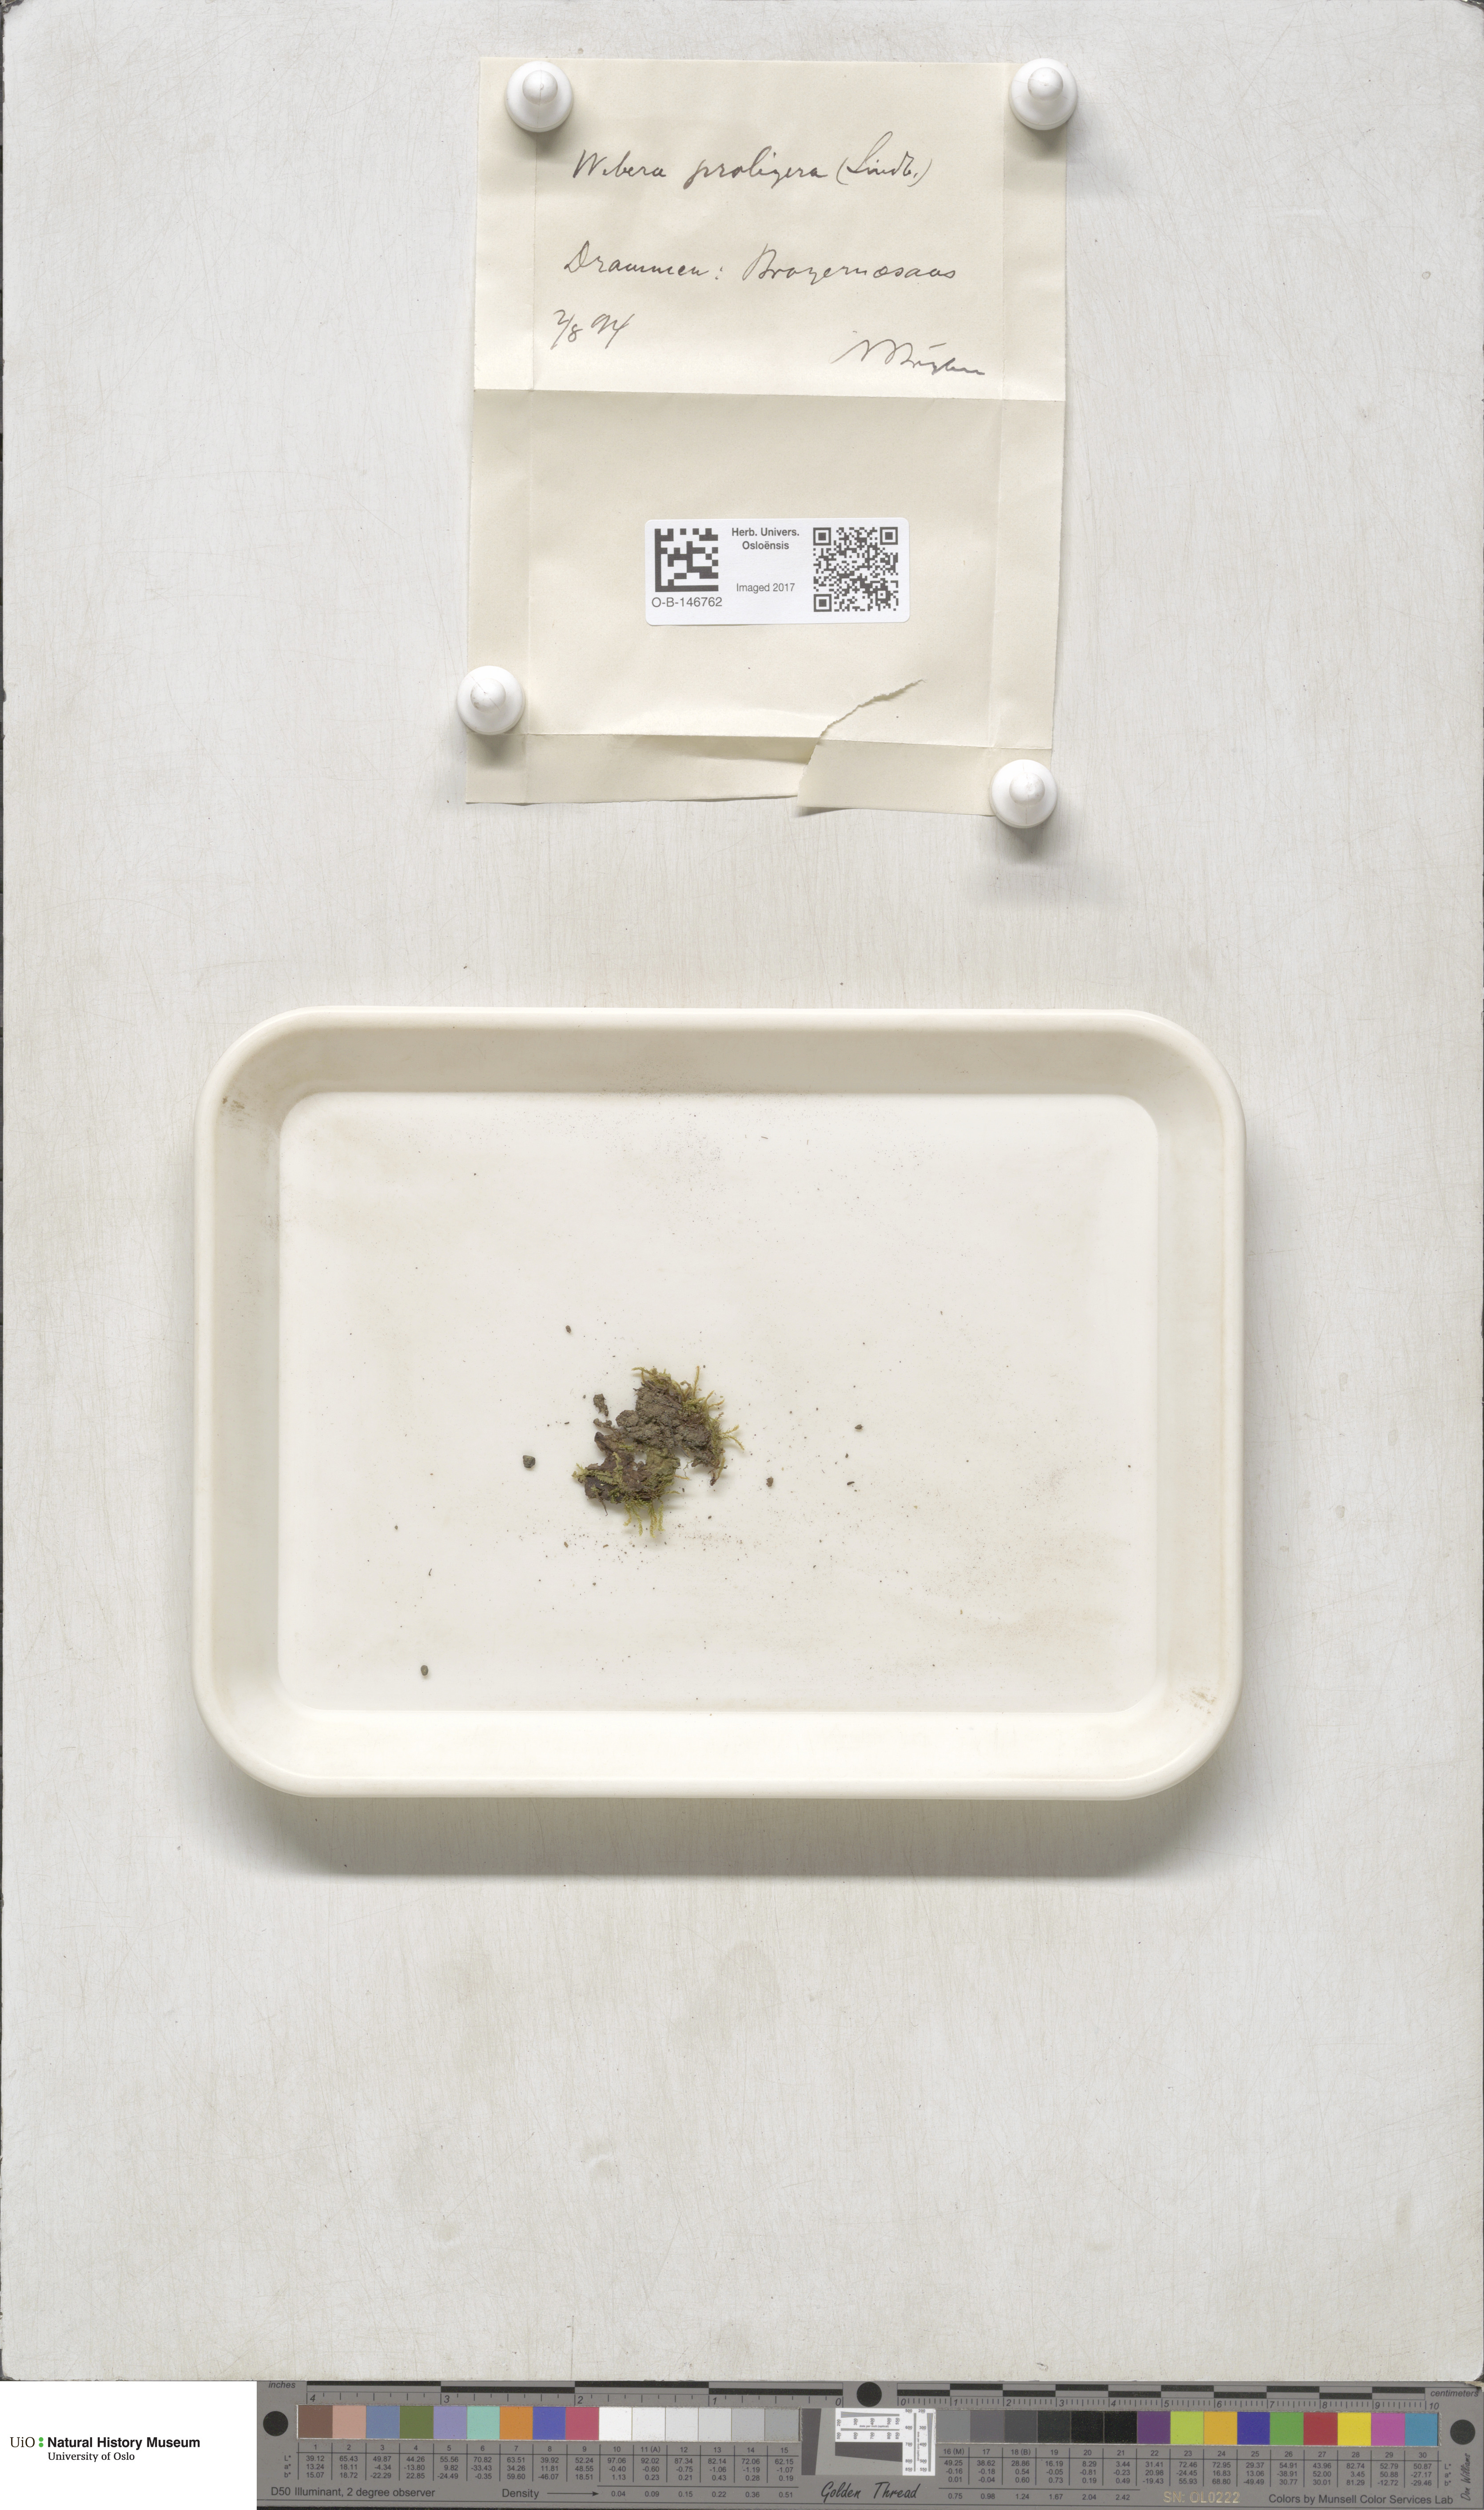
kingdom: Plantae
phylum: Bryophyta
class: Bryopsida
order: Bryales
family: Mniaceae
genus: Pohlia
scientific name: Pohlia proligera
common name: Cottony nodding moss
